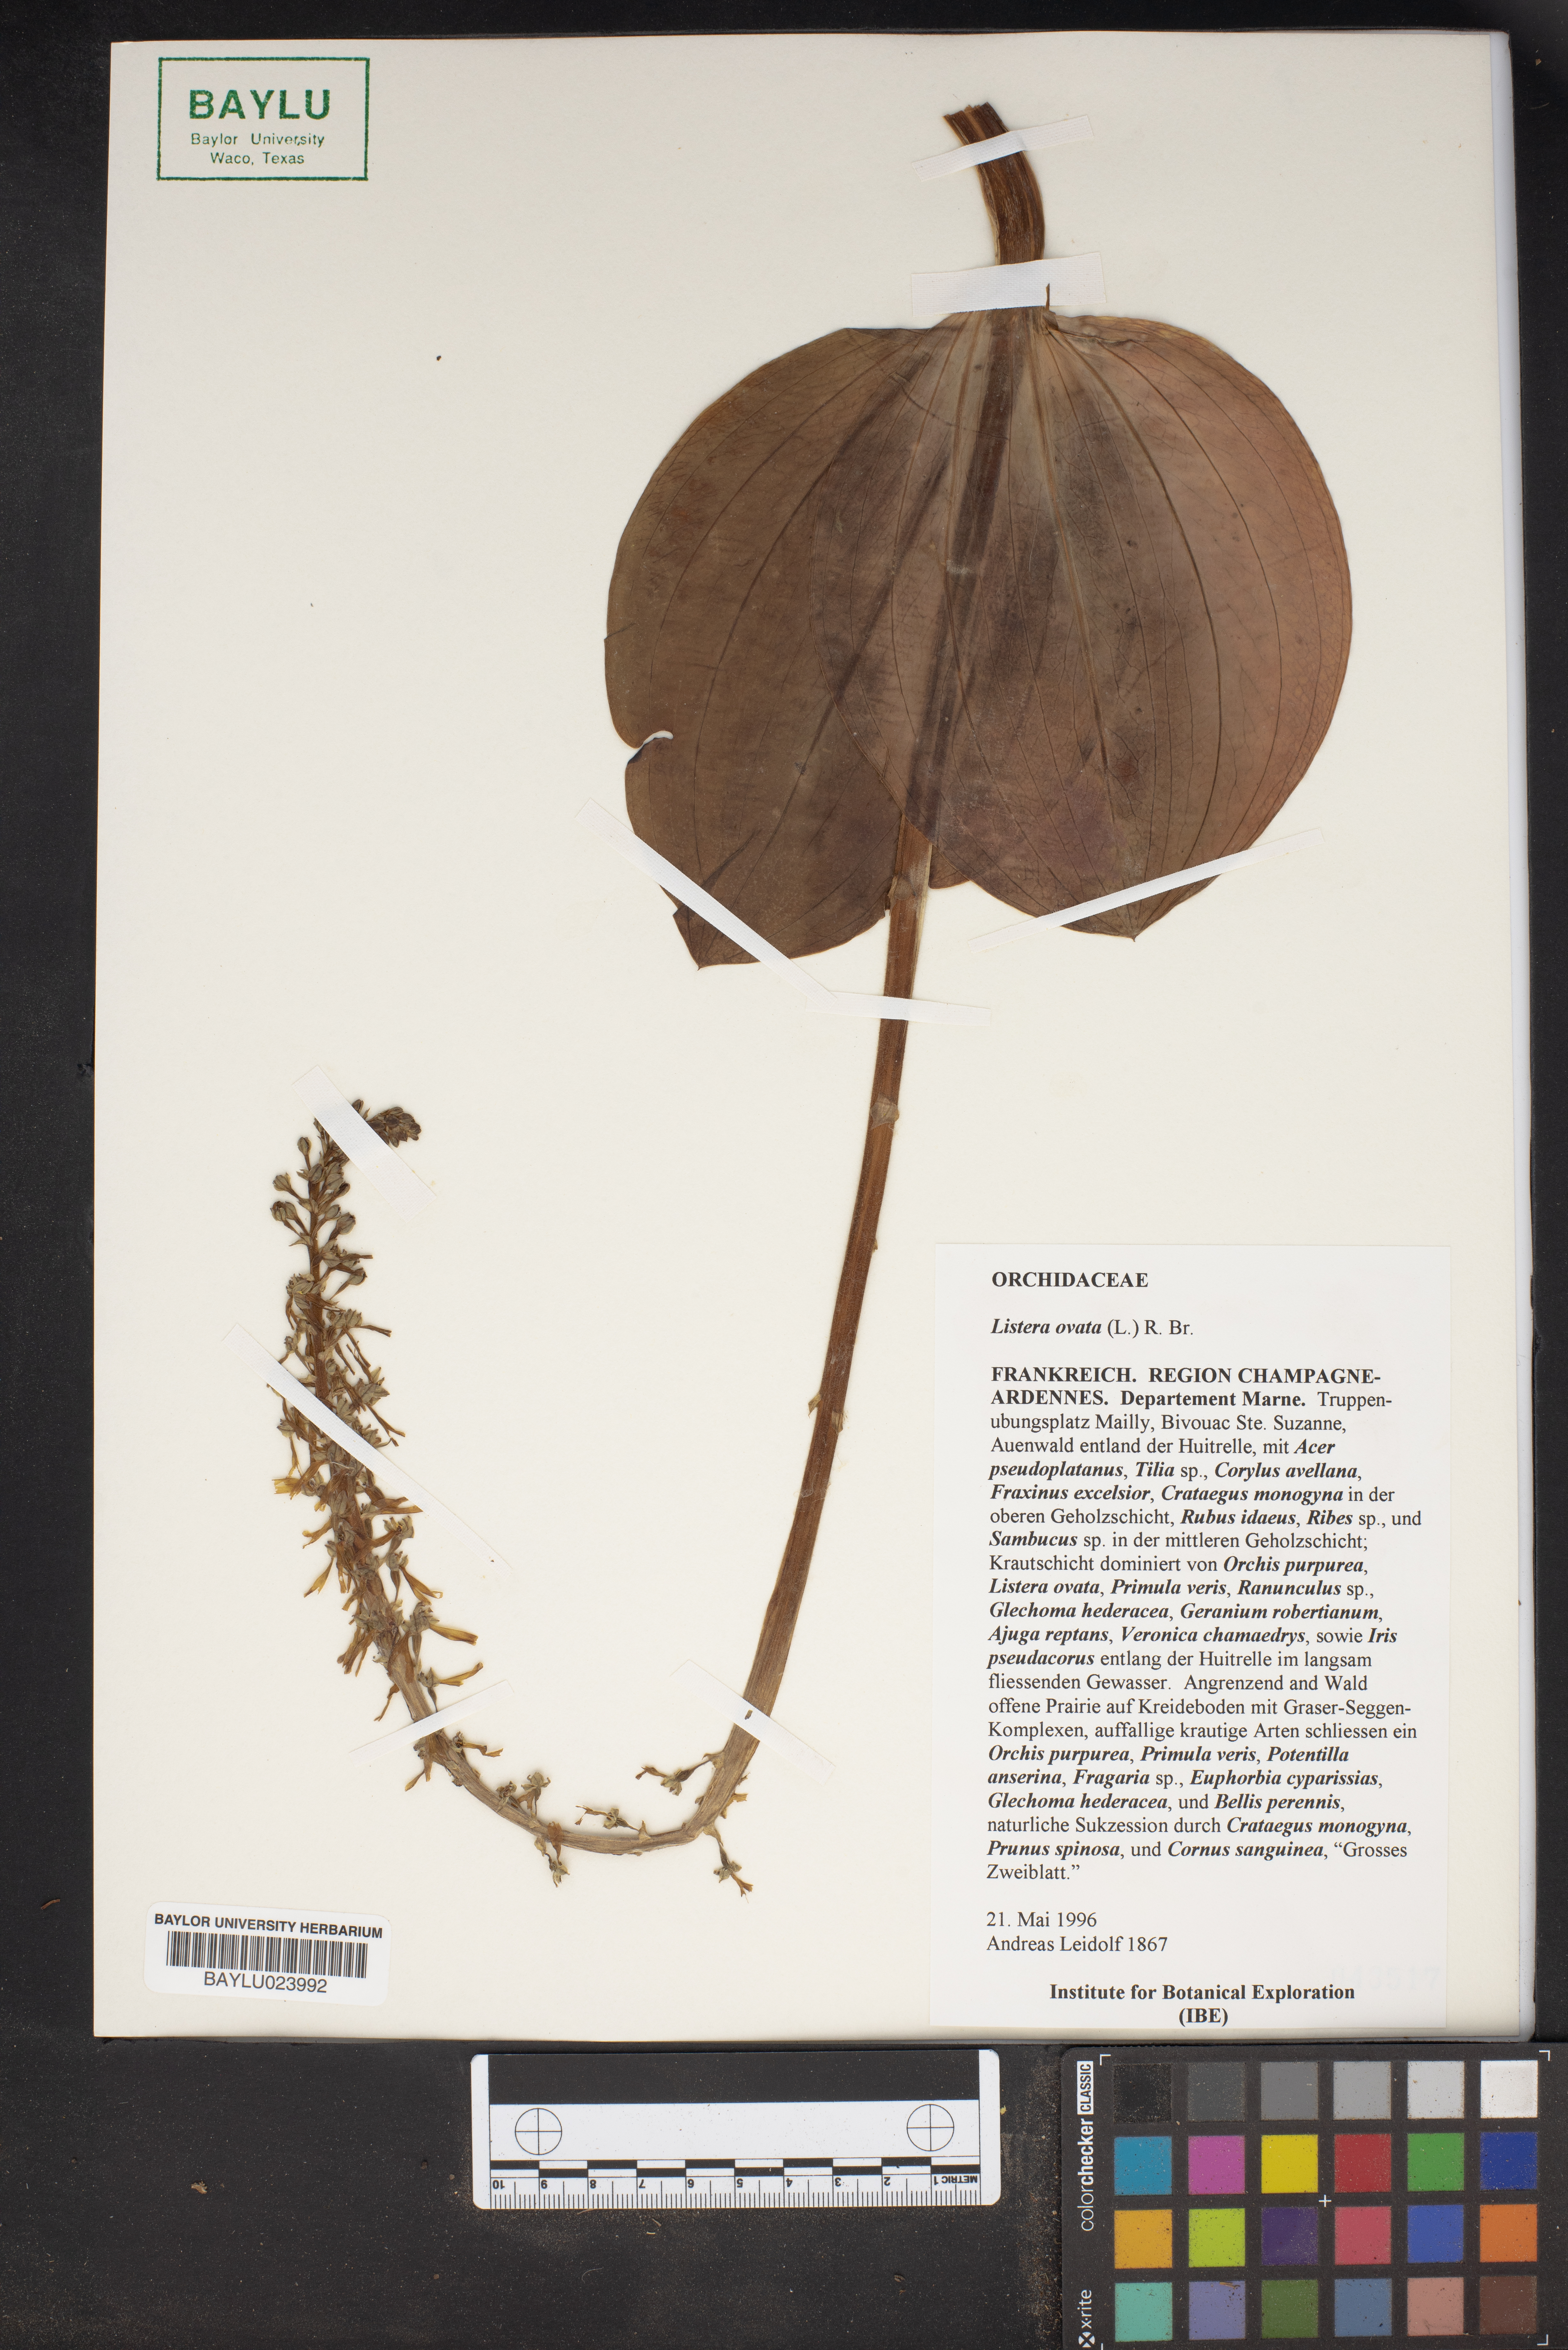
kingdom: Plantae
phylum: Tracheophyta
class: Liliopsida
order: Asparagales
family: Orchidaceae
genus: Neottia
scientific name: Neottia ovata
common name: Common twayblade
